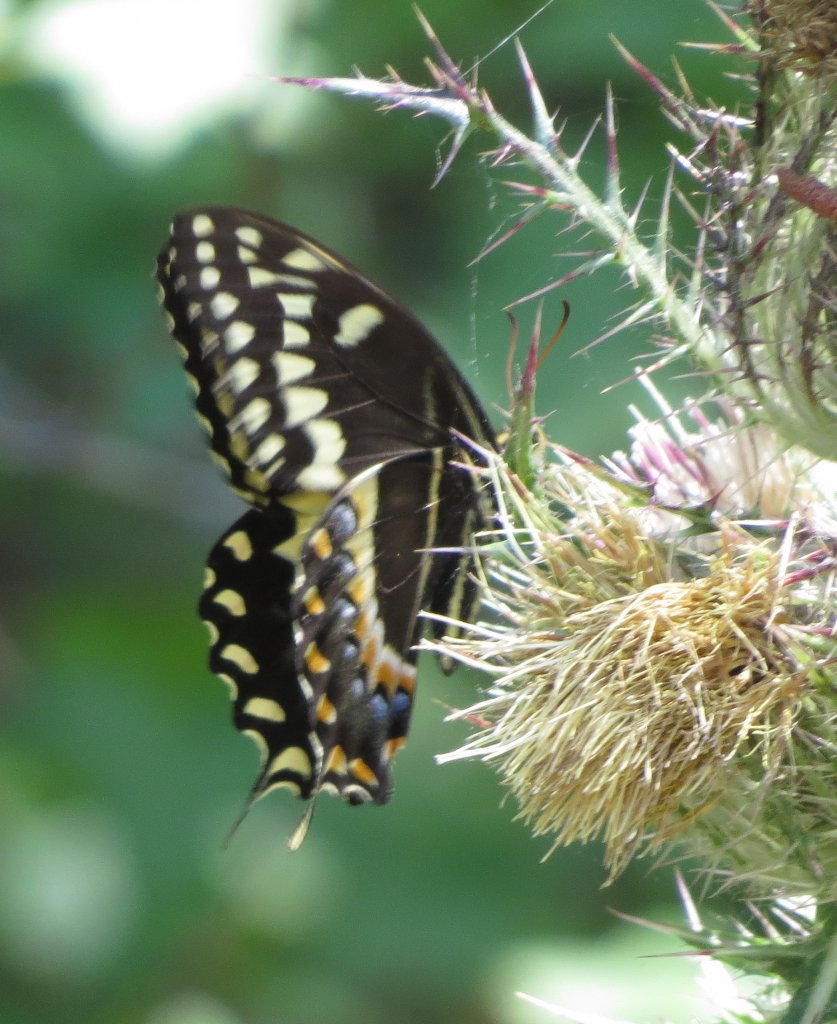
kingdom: Animalia
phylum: Arthropoda
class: Insecta
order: Lepidoptera
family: Papilionidae
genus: Pterourus
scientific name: Pterourus palamedes
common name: Palamedes Swallowtail
